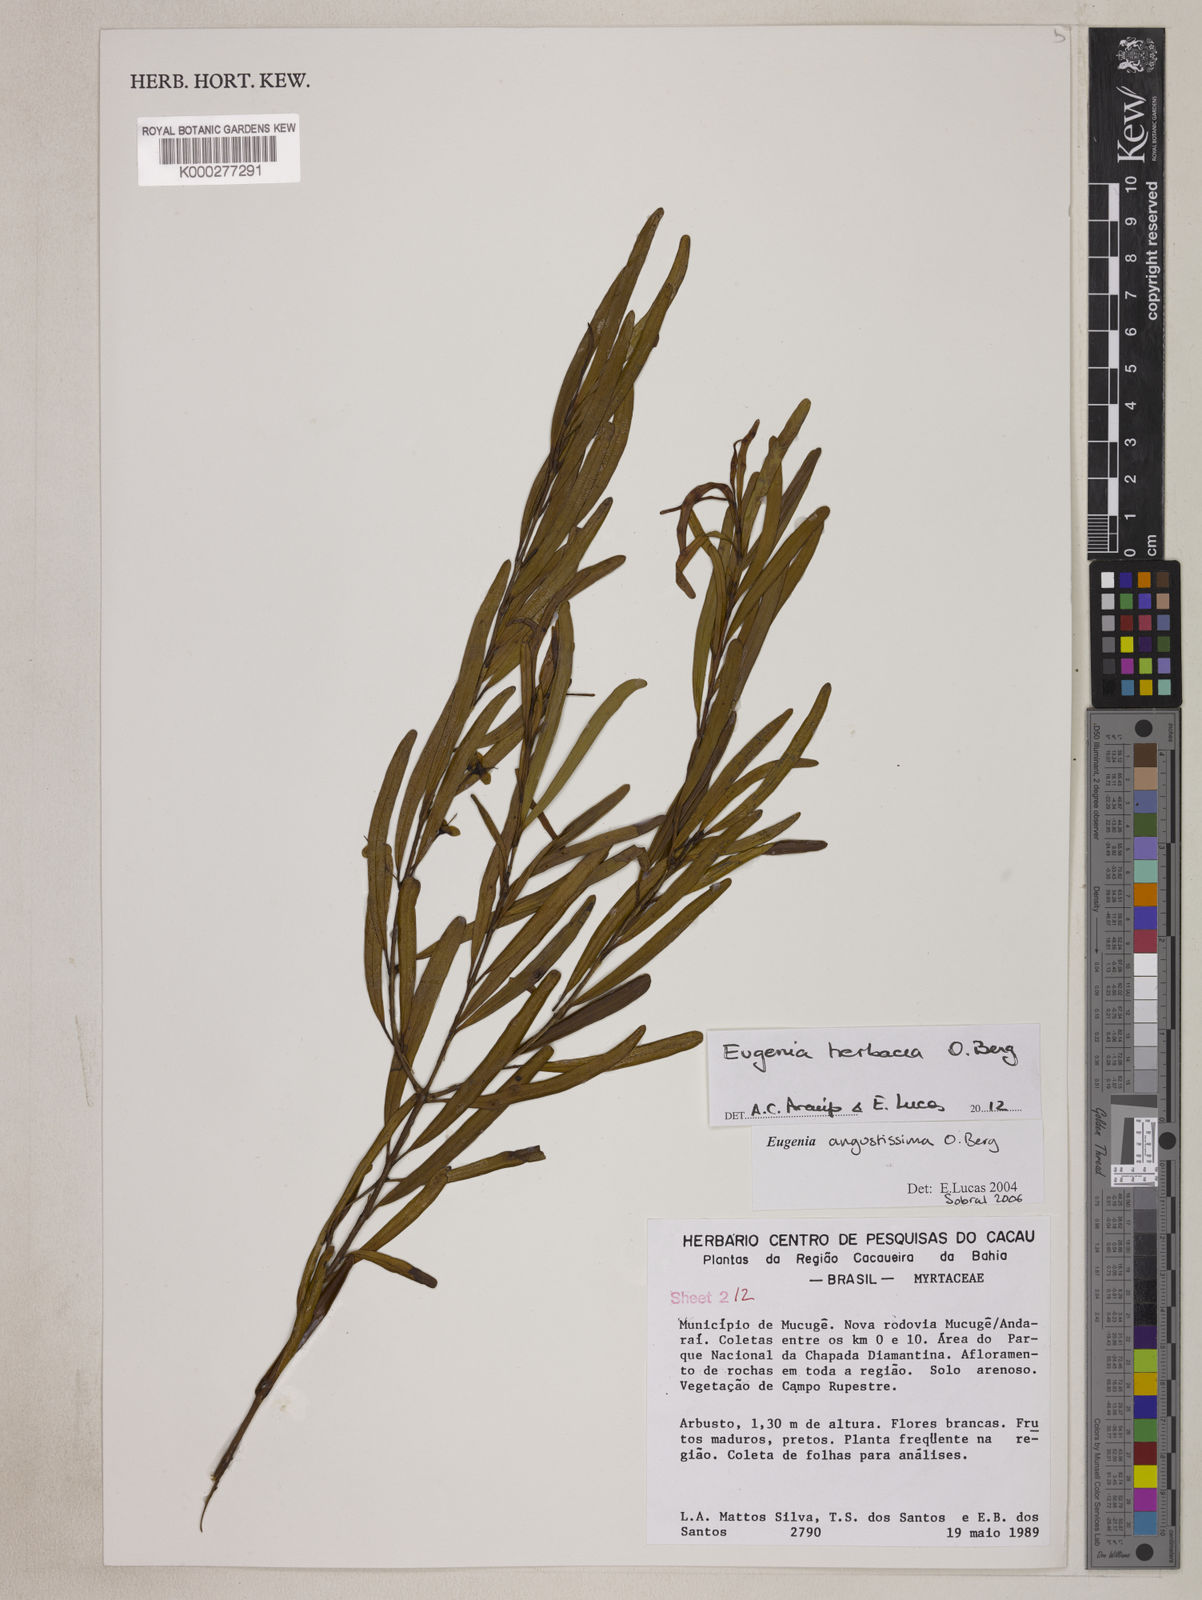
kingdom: Plantae
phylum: Tracheophyta
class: Magnoliopsida
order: Myrtales
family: Myrtaceae
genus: Eugenia
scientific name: Eugenia angustissima
